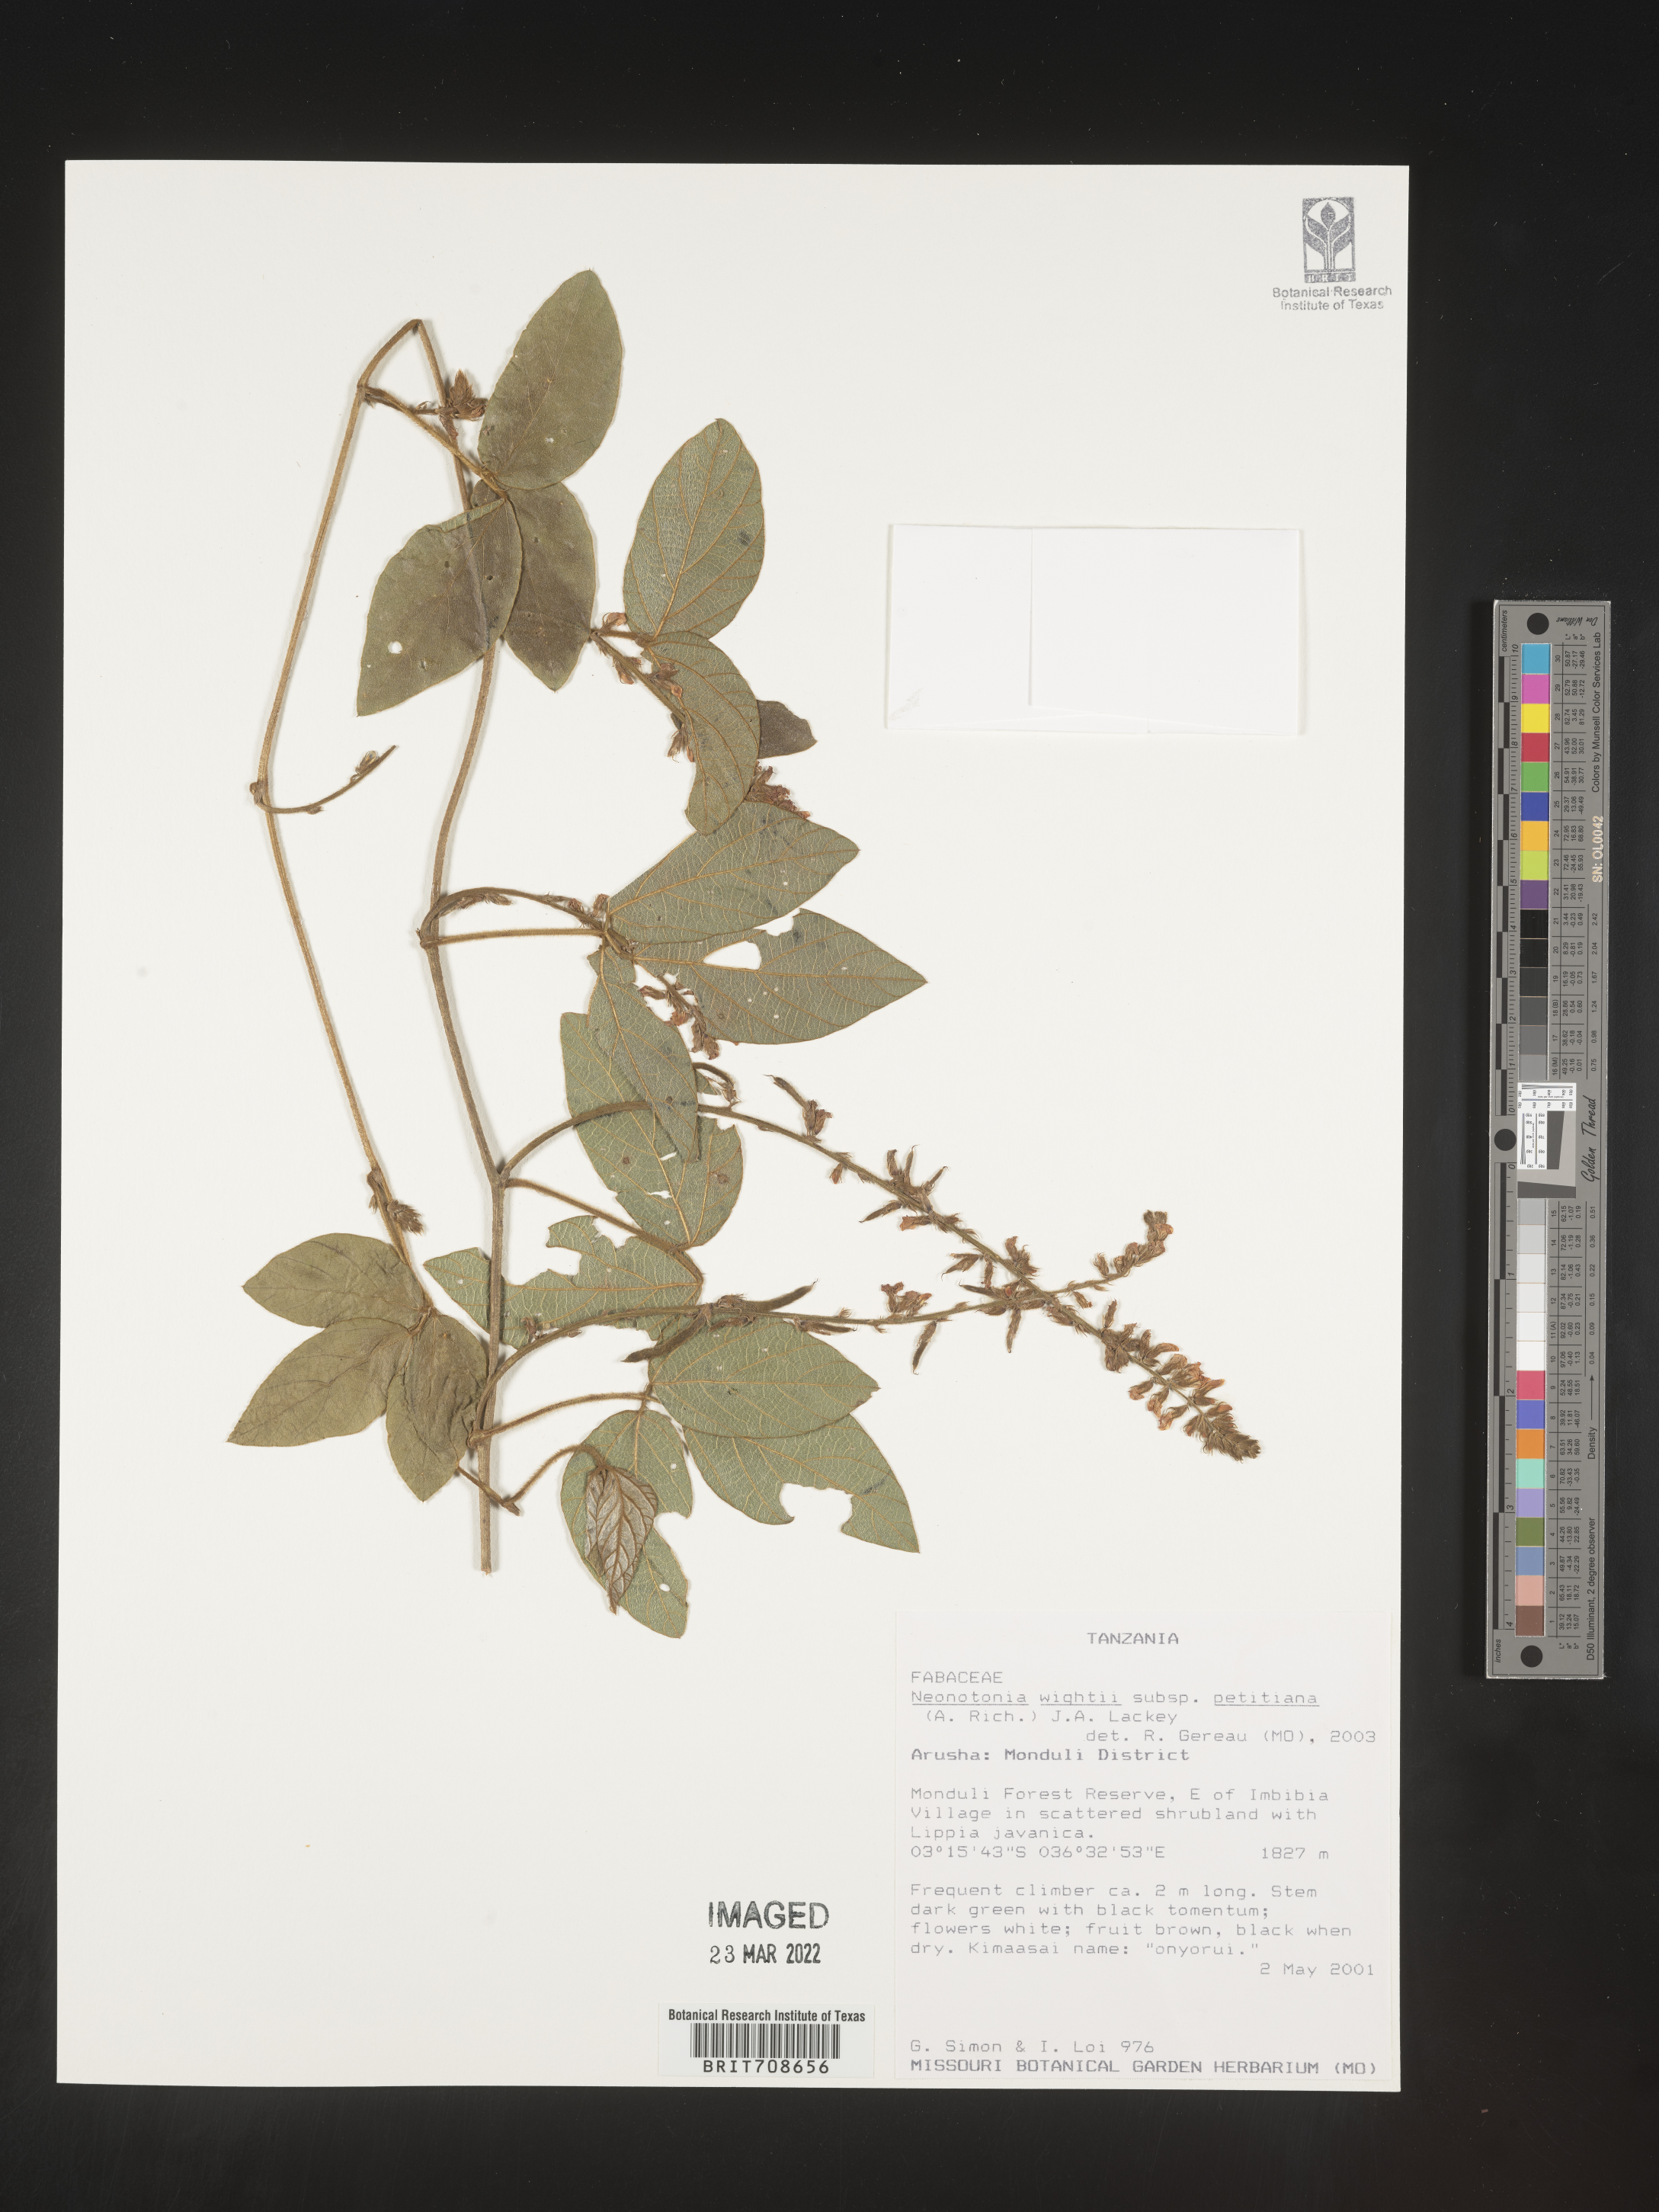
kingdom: Plantae
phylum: Tracheophyta
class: Magnoliopsida
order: Fabales
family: Fabaceae
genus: Neonotonia
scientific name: Neonotonia
